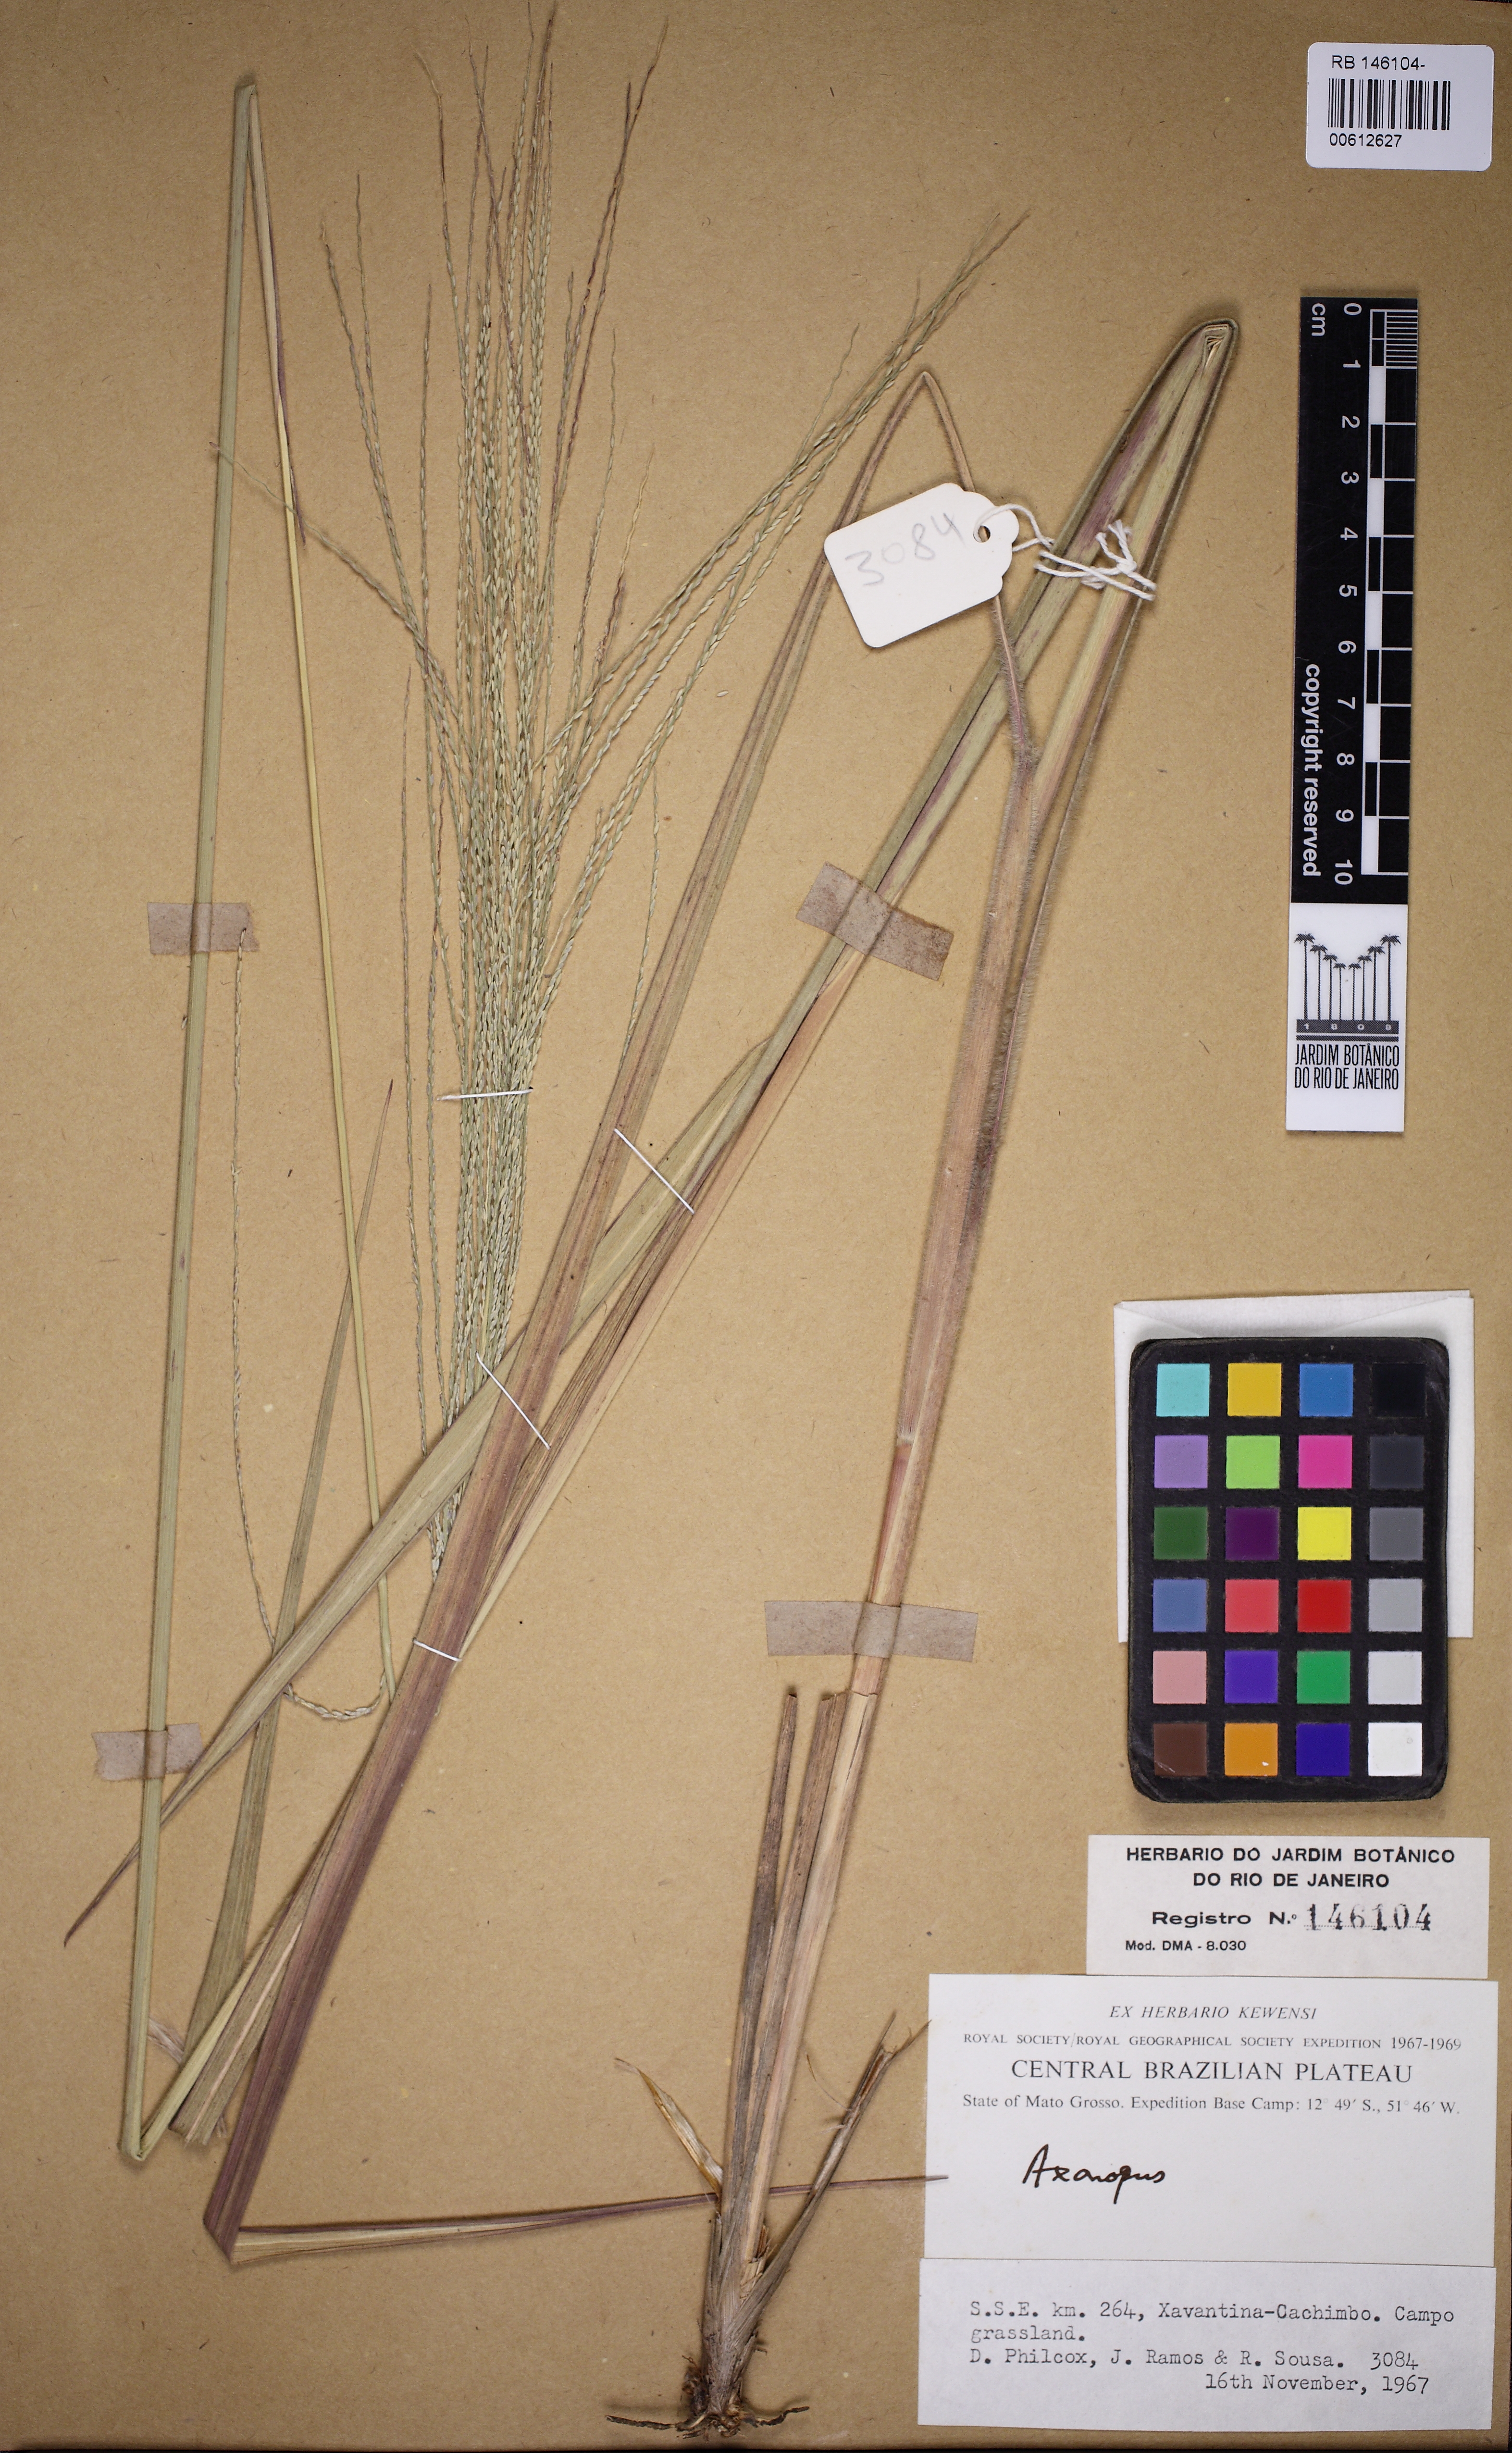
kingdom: Plantae
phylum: Tracheophyta
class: Liliopsida
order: Poales
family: Poaceae
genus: Axonopus
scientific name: Axonopus
